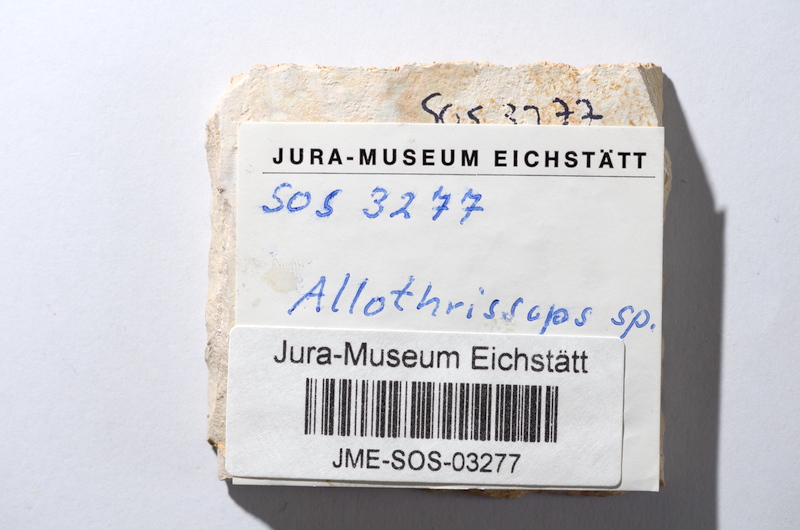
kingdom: Animalia
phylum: Chordata
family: Allothrissopidae
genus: Allothrissops
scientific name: Allothrissops
